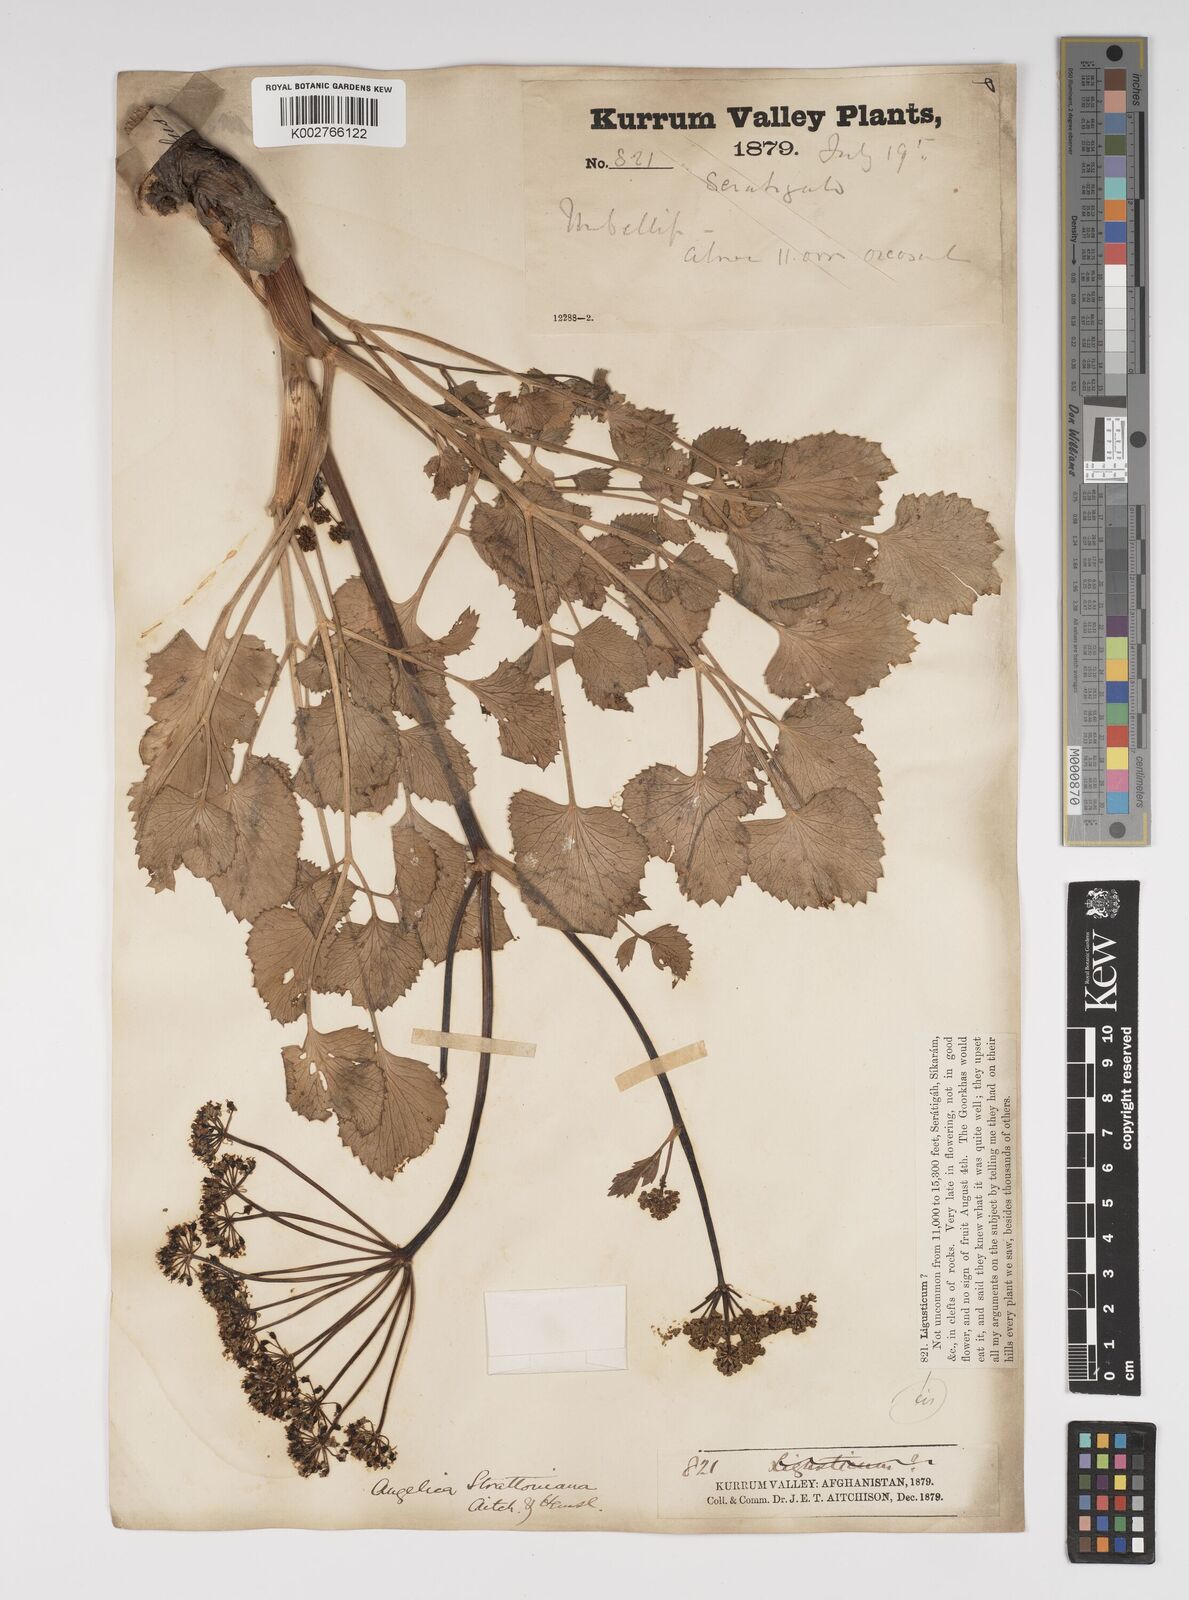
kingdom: Plantae
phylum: Tracheophyta
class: Magnoliopsida
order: Apiales
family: Apiaceae
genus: Angelica
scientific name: Angelica ternata
